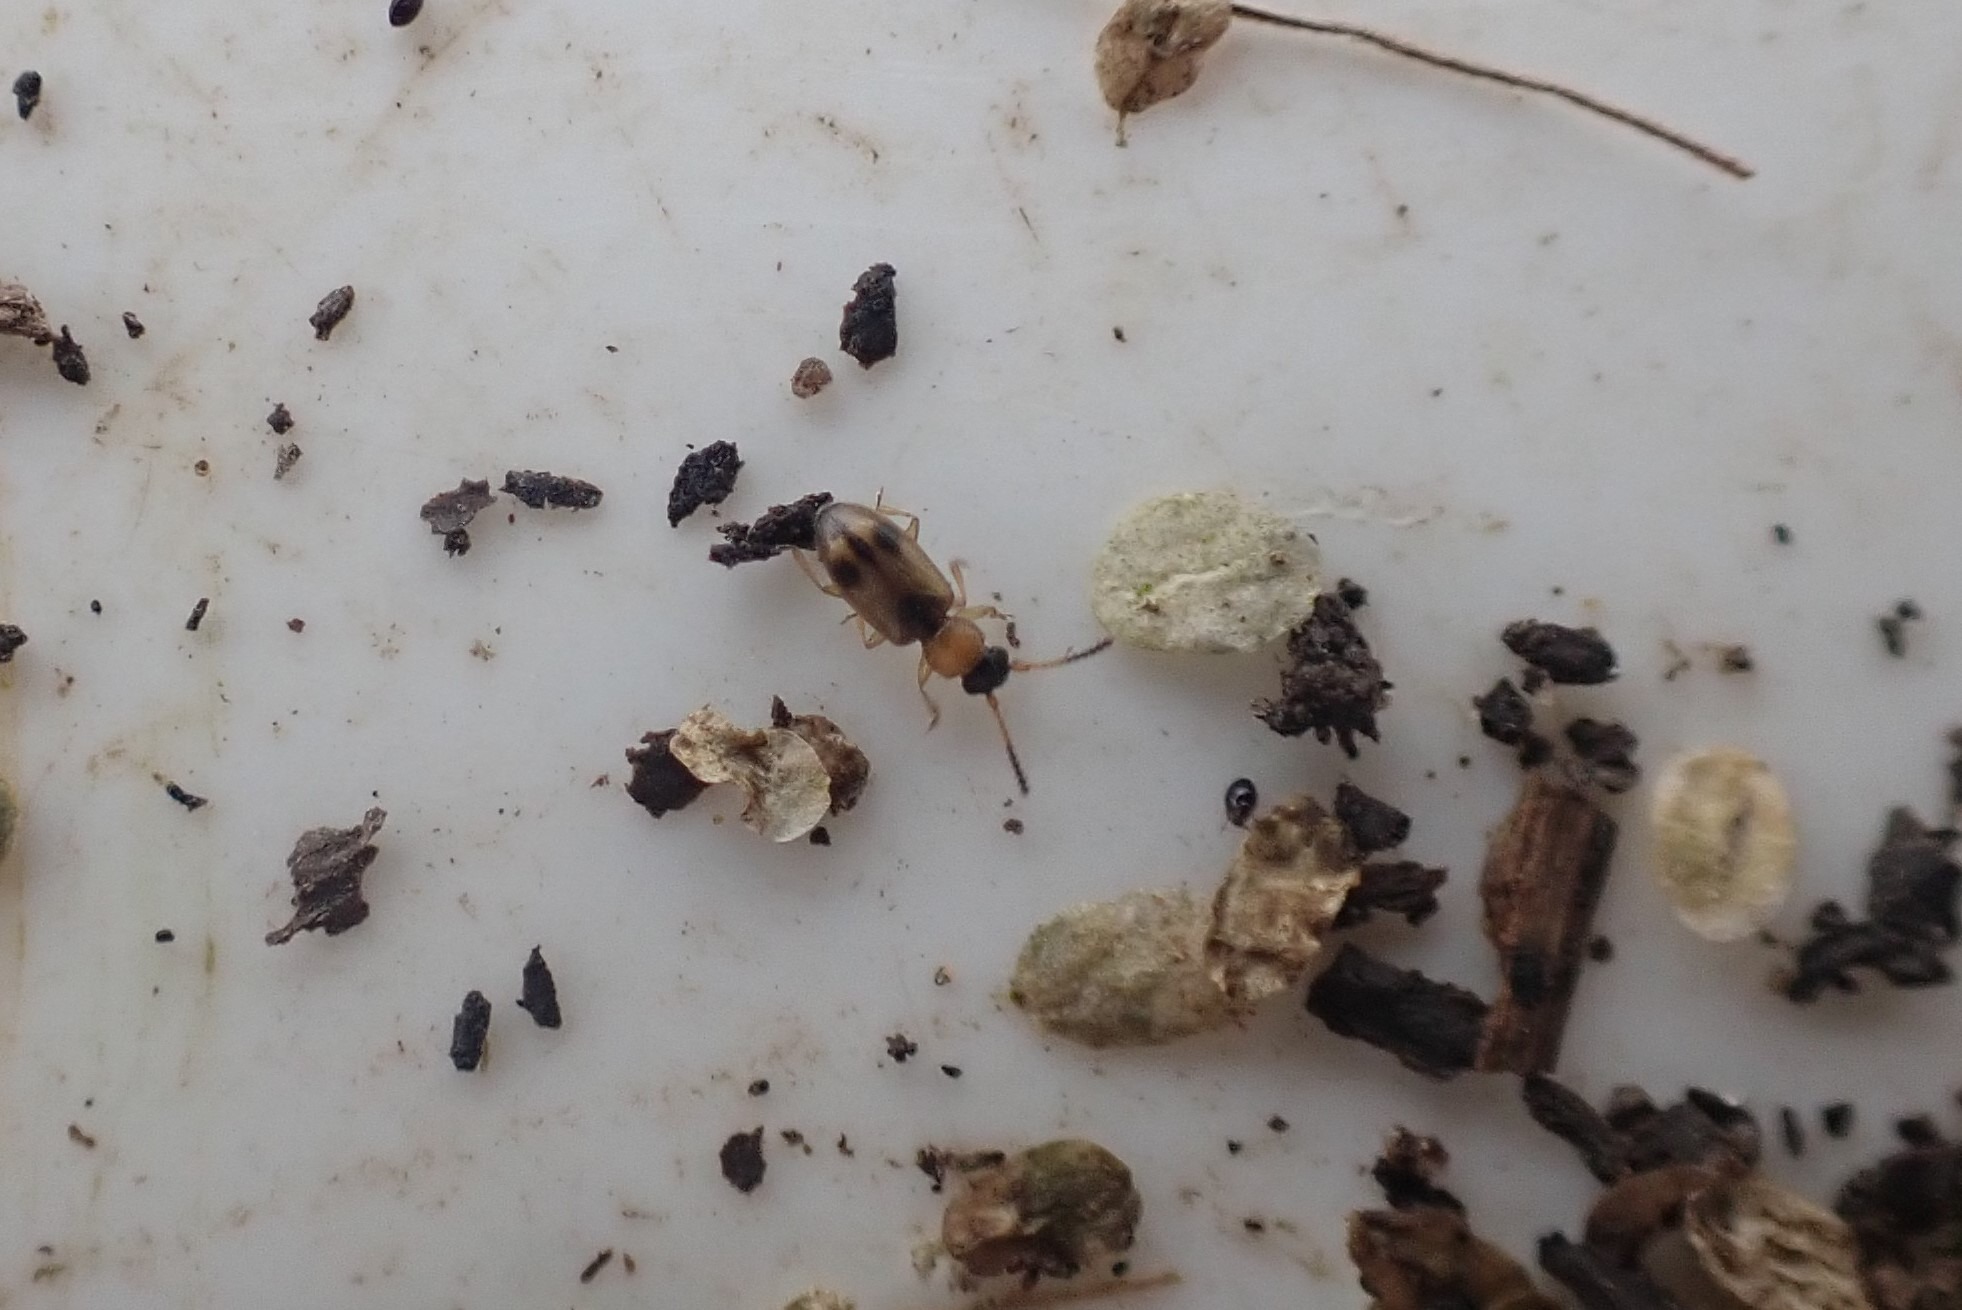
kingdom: Animalia
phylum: Arthropoda
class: Insecta
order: Coleoptera
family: Silvanidae
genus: Psammoecus
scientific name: Psammoecus bipunctatus
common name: Tagrørsfladbille
